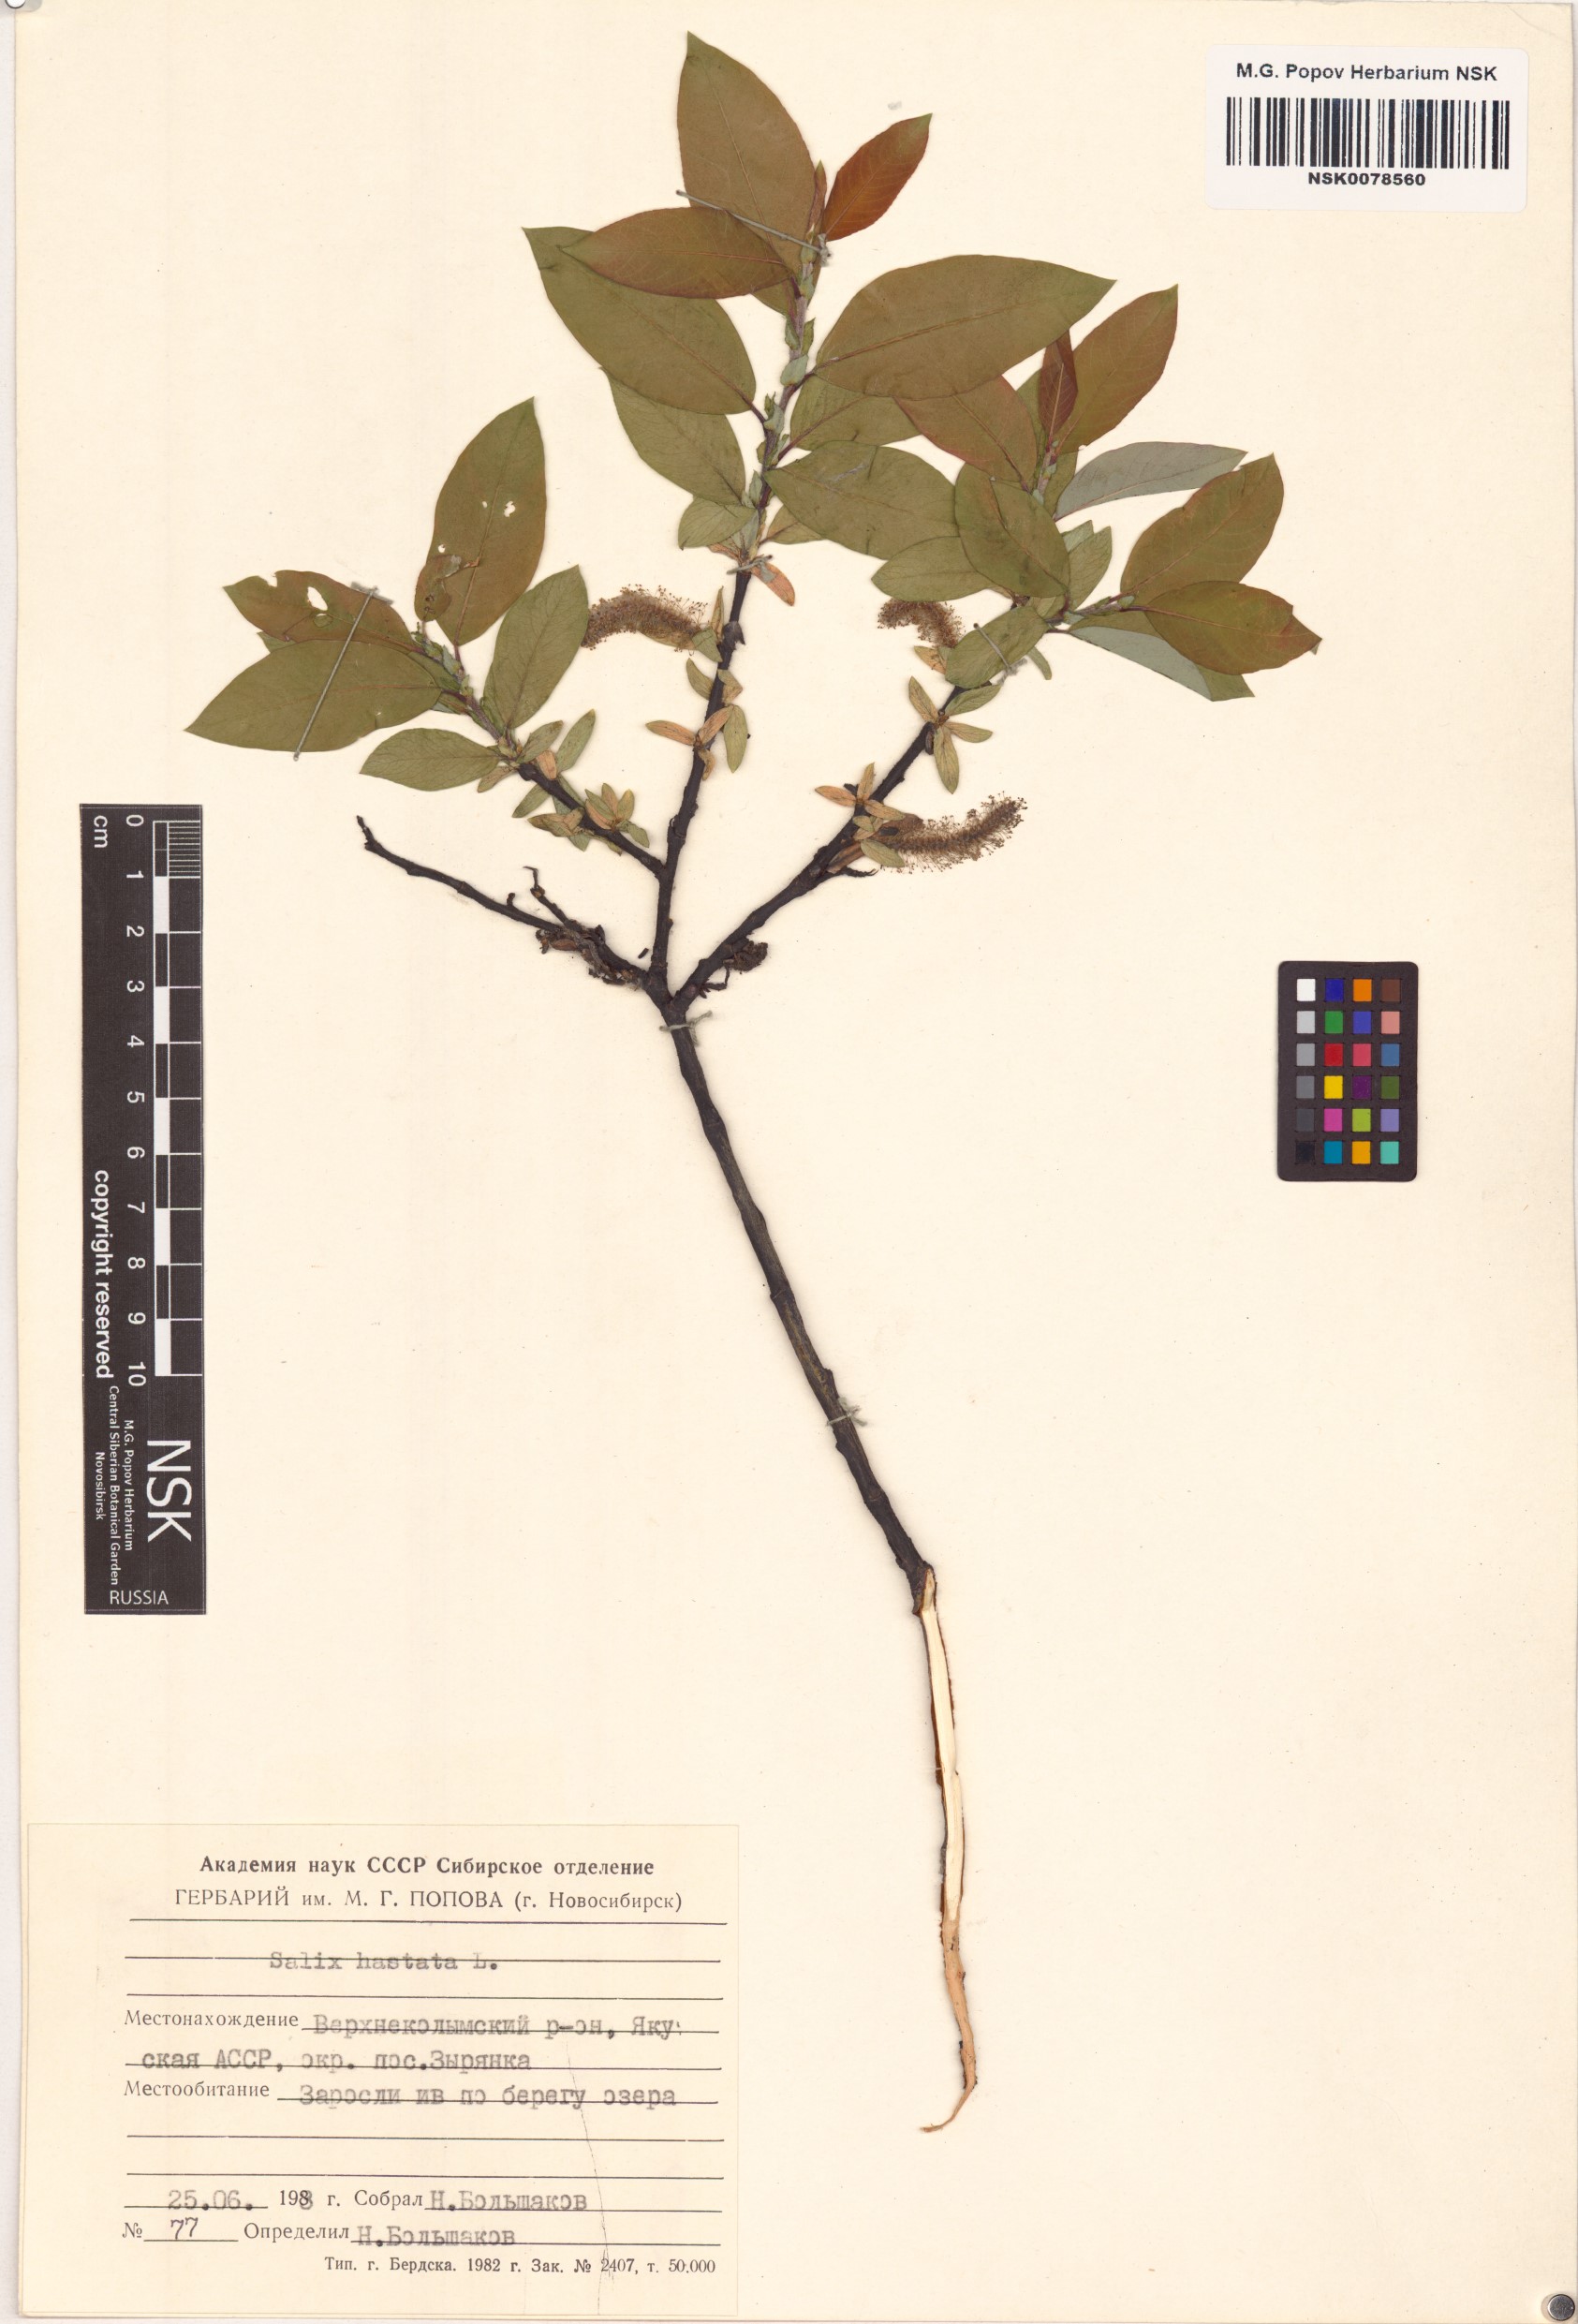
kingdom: Plantae
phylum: Tracheophyta
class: Magnoliopsida
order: Malpighiales
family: Salicaceae
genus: Salix
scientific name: Salix hastata
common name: Halberd willow
